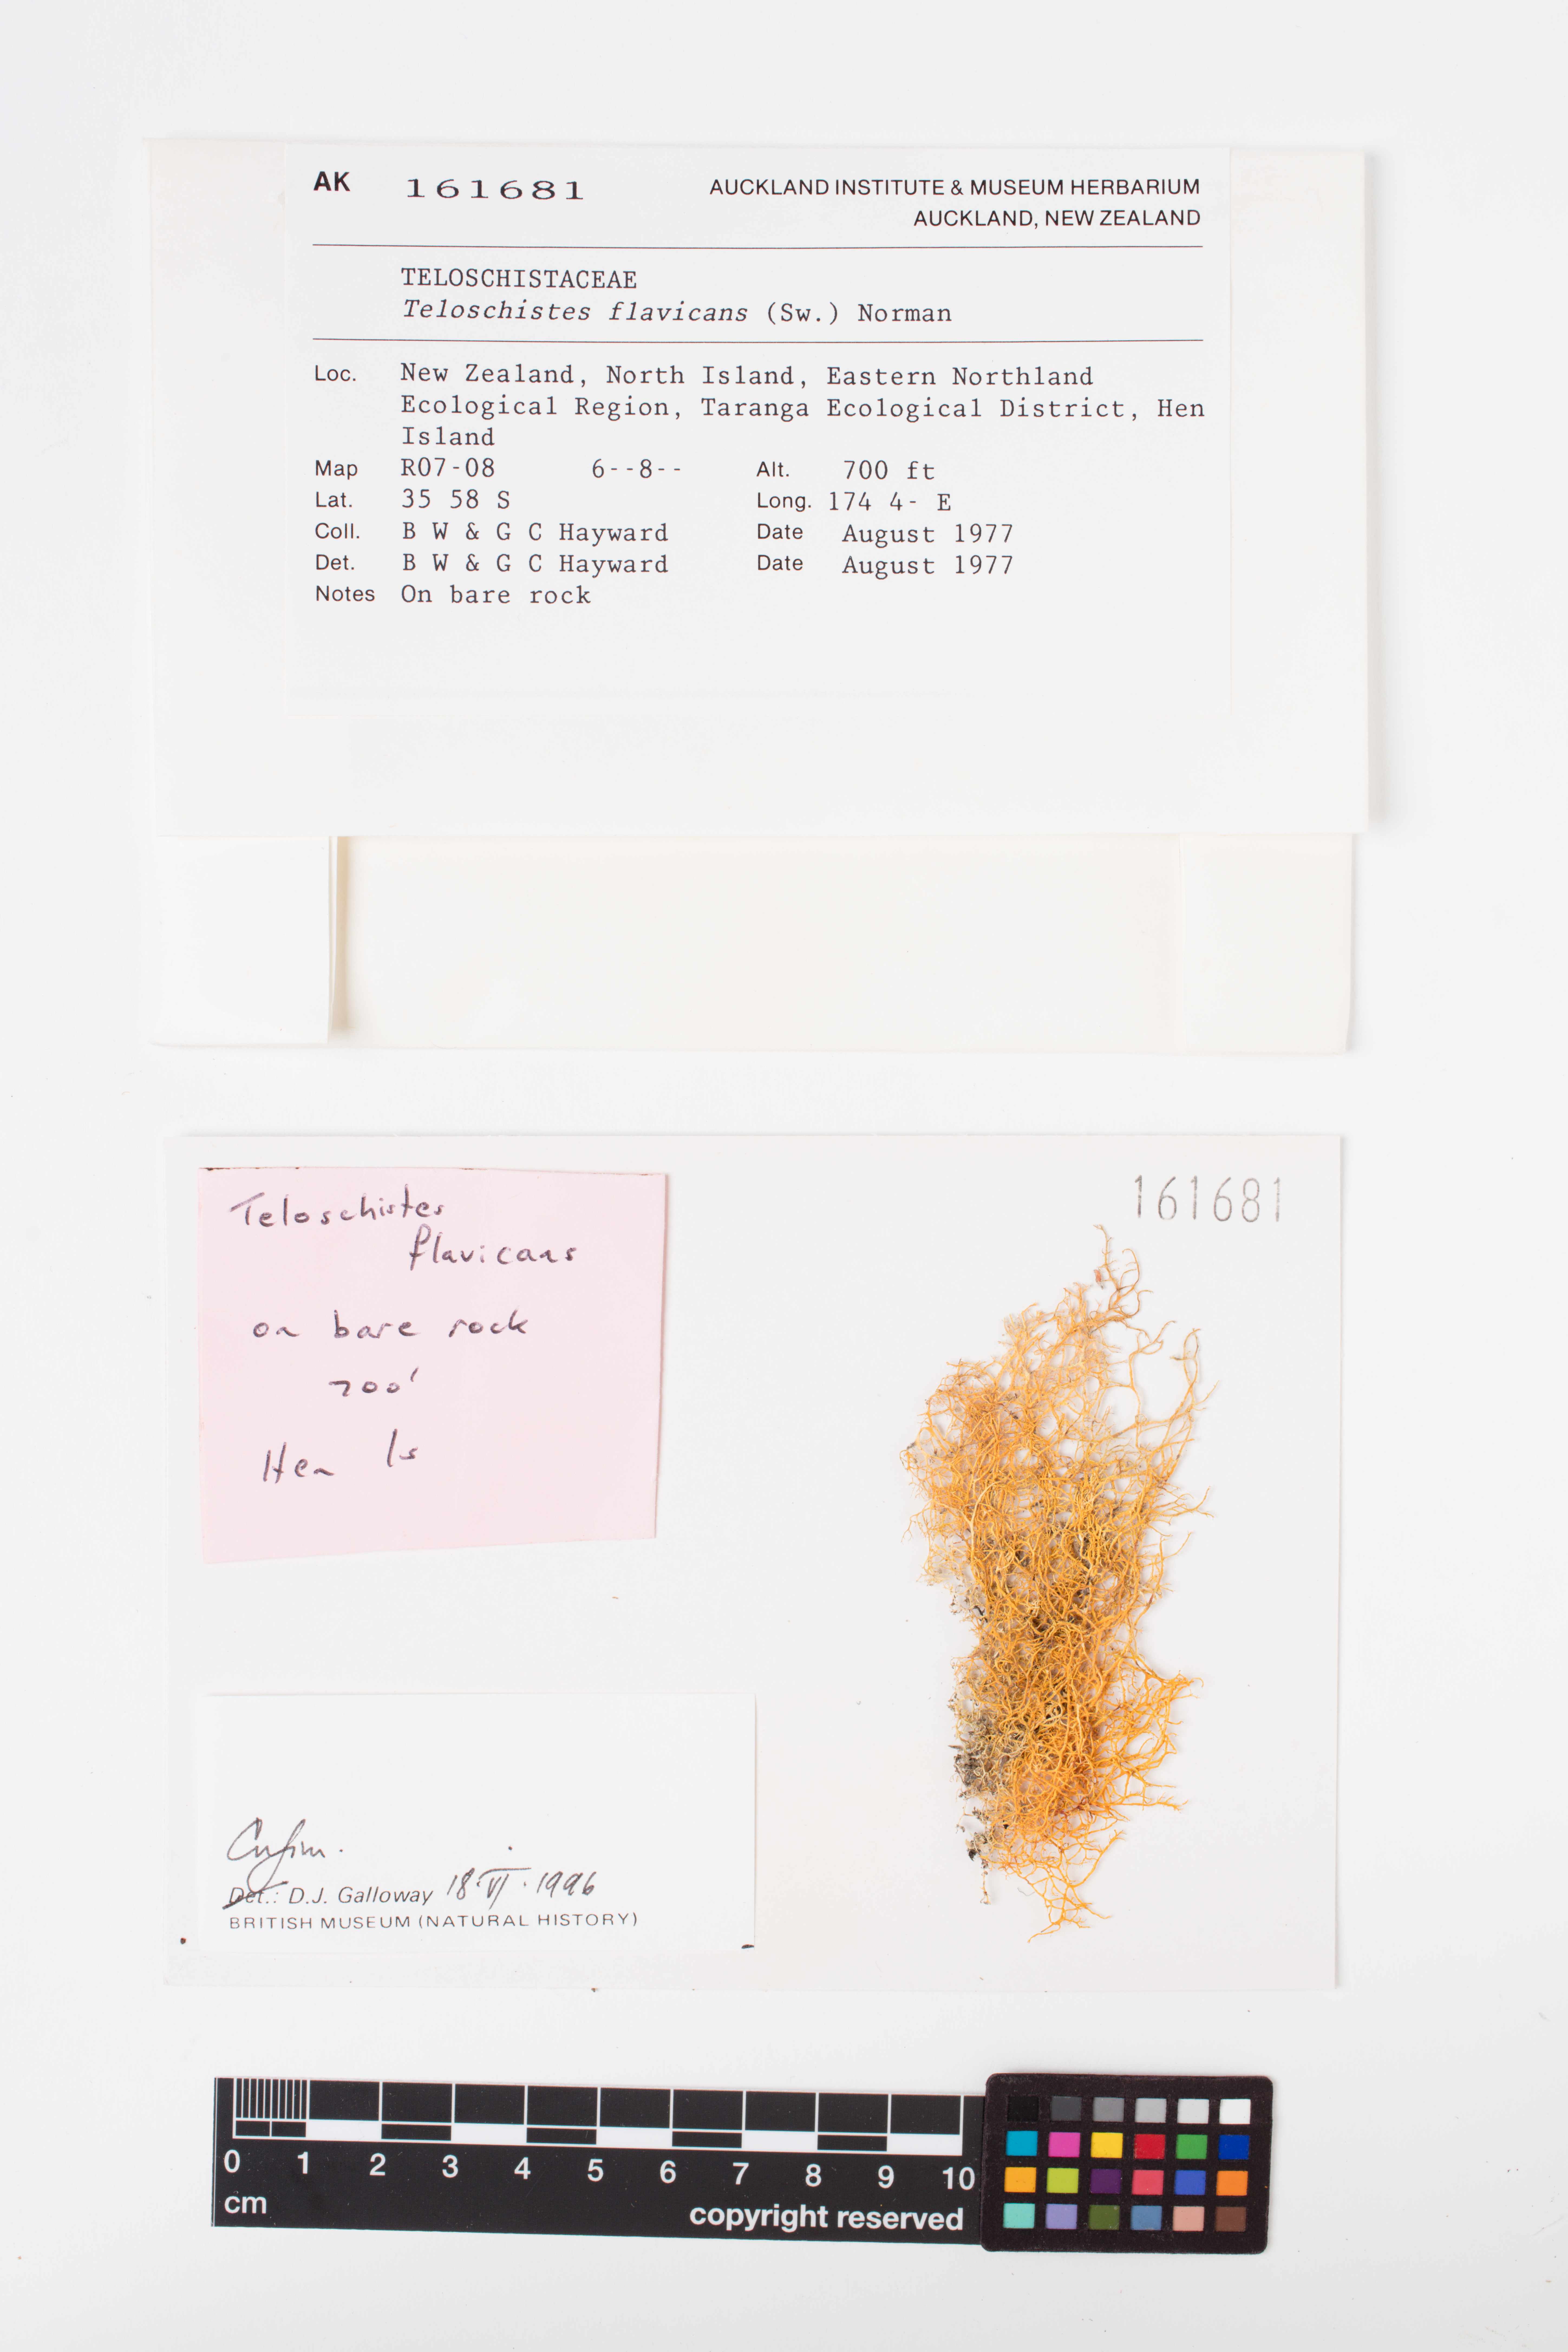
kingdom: Fungi
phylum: Ascomycota
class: Lecanoromycetes
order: Teloschistales
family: Teloschistaceae
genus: Teloschistes
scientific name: Teloschistes flavicans
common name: Golden hair-lichen
